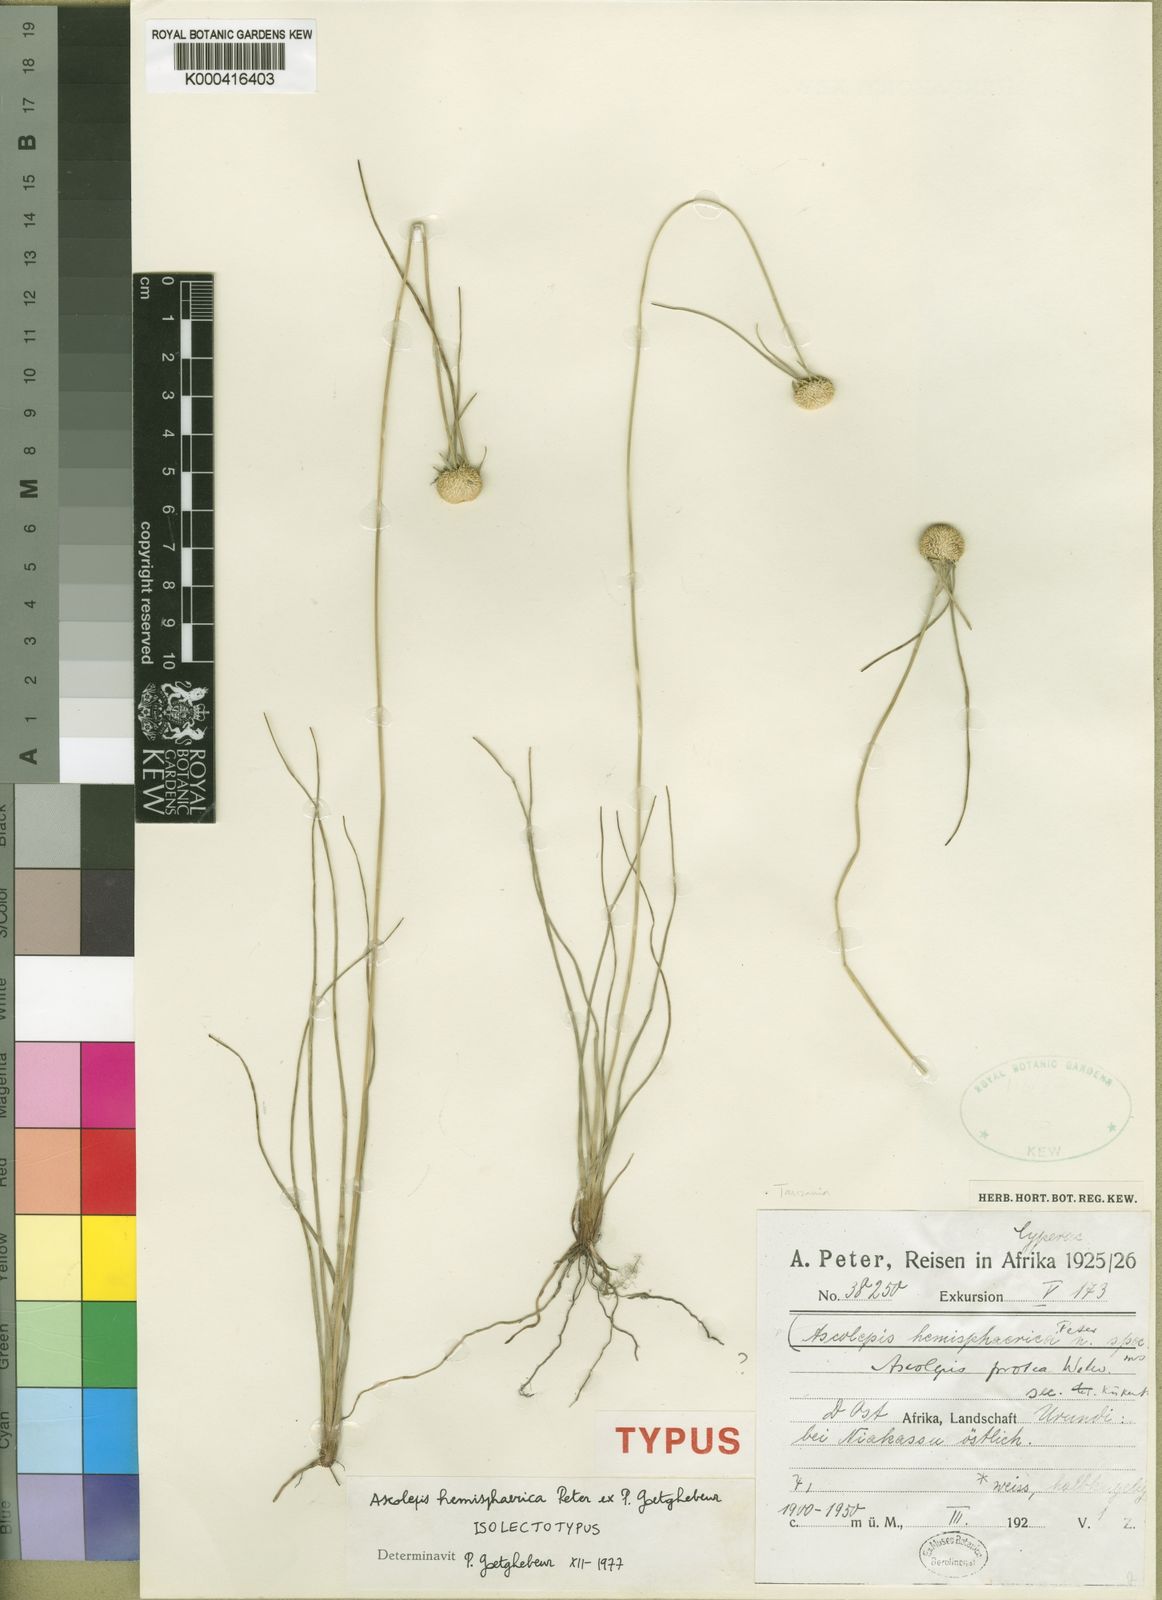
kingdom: Plantae
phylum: Tracheophyta
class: Liliopsida
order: Poales
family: Cyperaceae
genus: Cyperus
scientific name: Cyperus ascohemisphaericus
